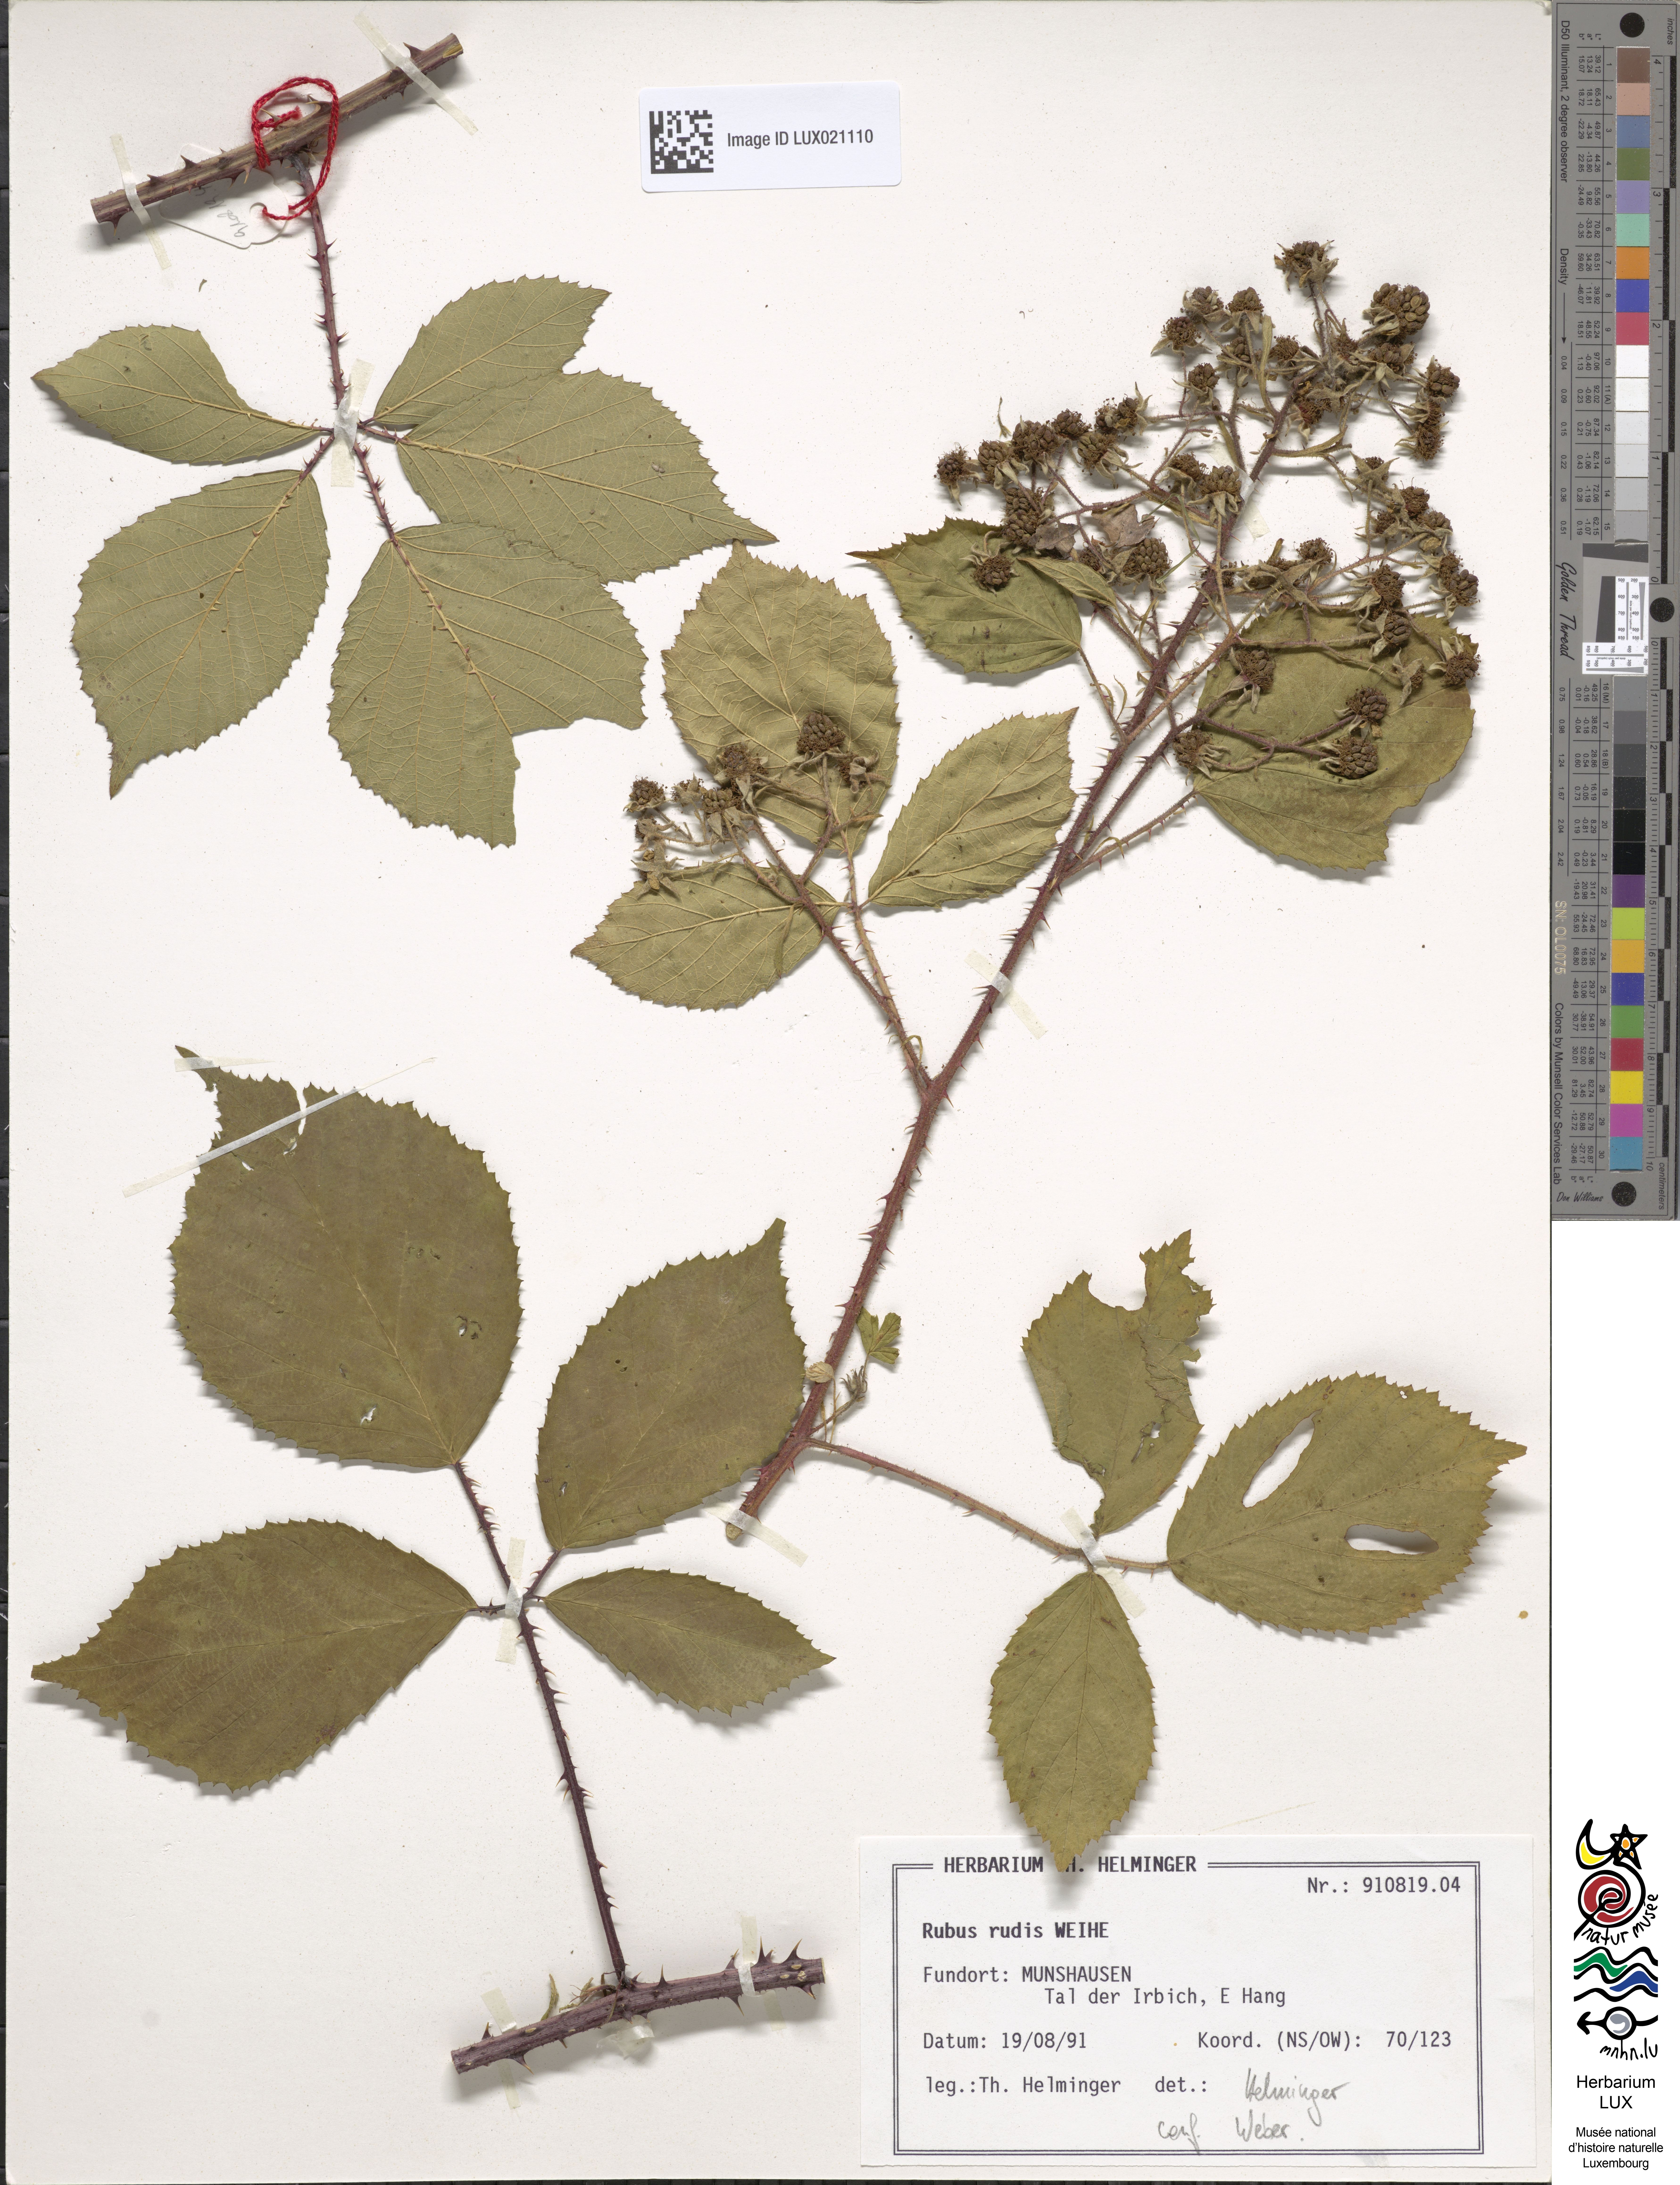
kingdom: Plantae
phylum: Tracheophyta
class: Magnoliopsida
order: Rosales
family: Rosaceae
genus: Rubus
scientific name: Rubus rudis
